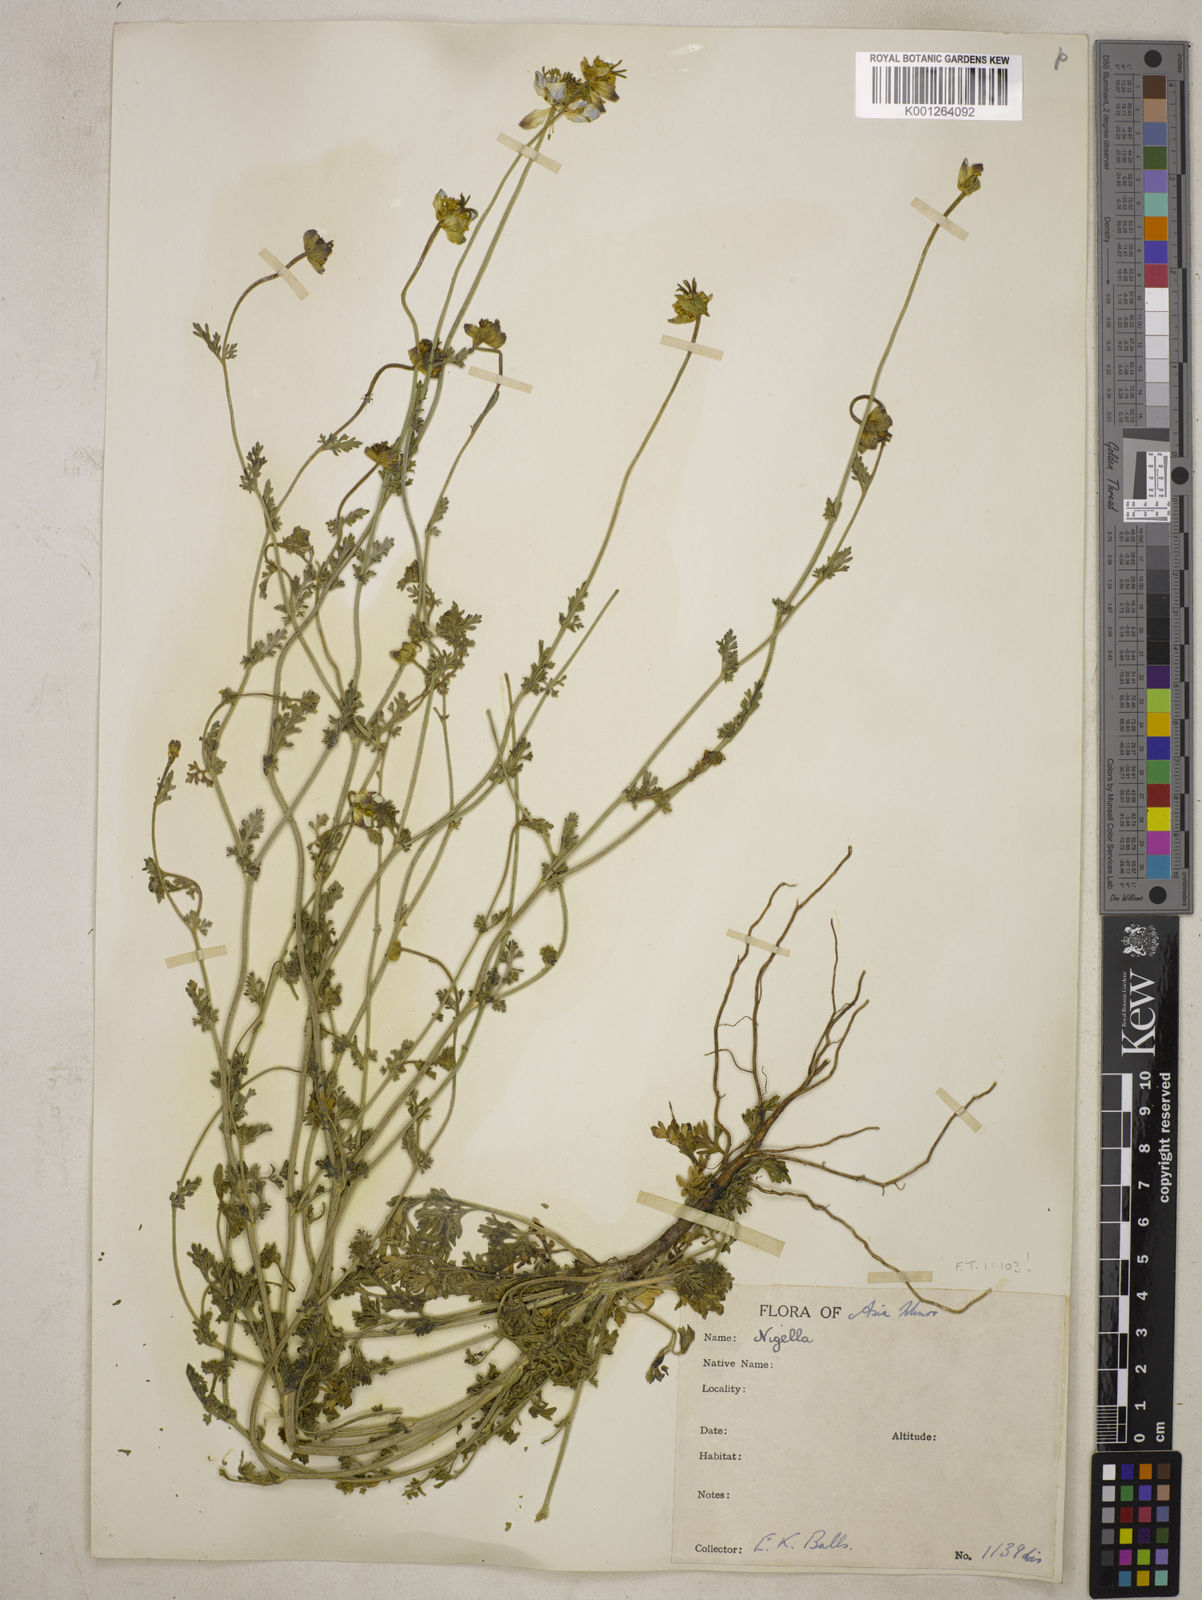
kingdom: Plantae
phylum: Tracheophyta
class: Magnoliopsida
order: Ranunculales
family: Ranunculaceae
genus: Nigella
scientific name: Nigella sativa
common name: Black-cumin
